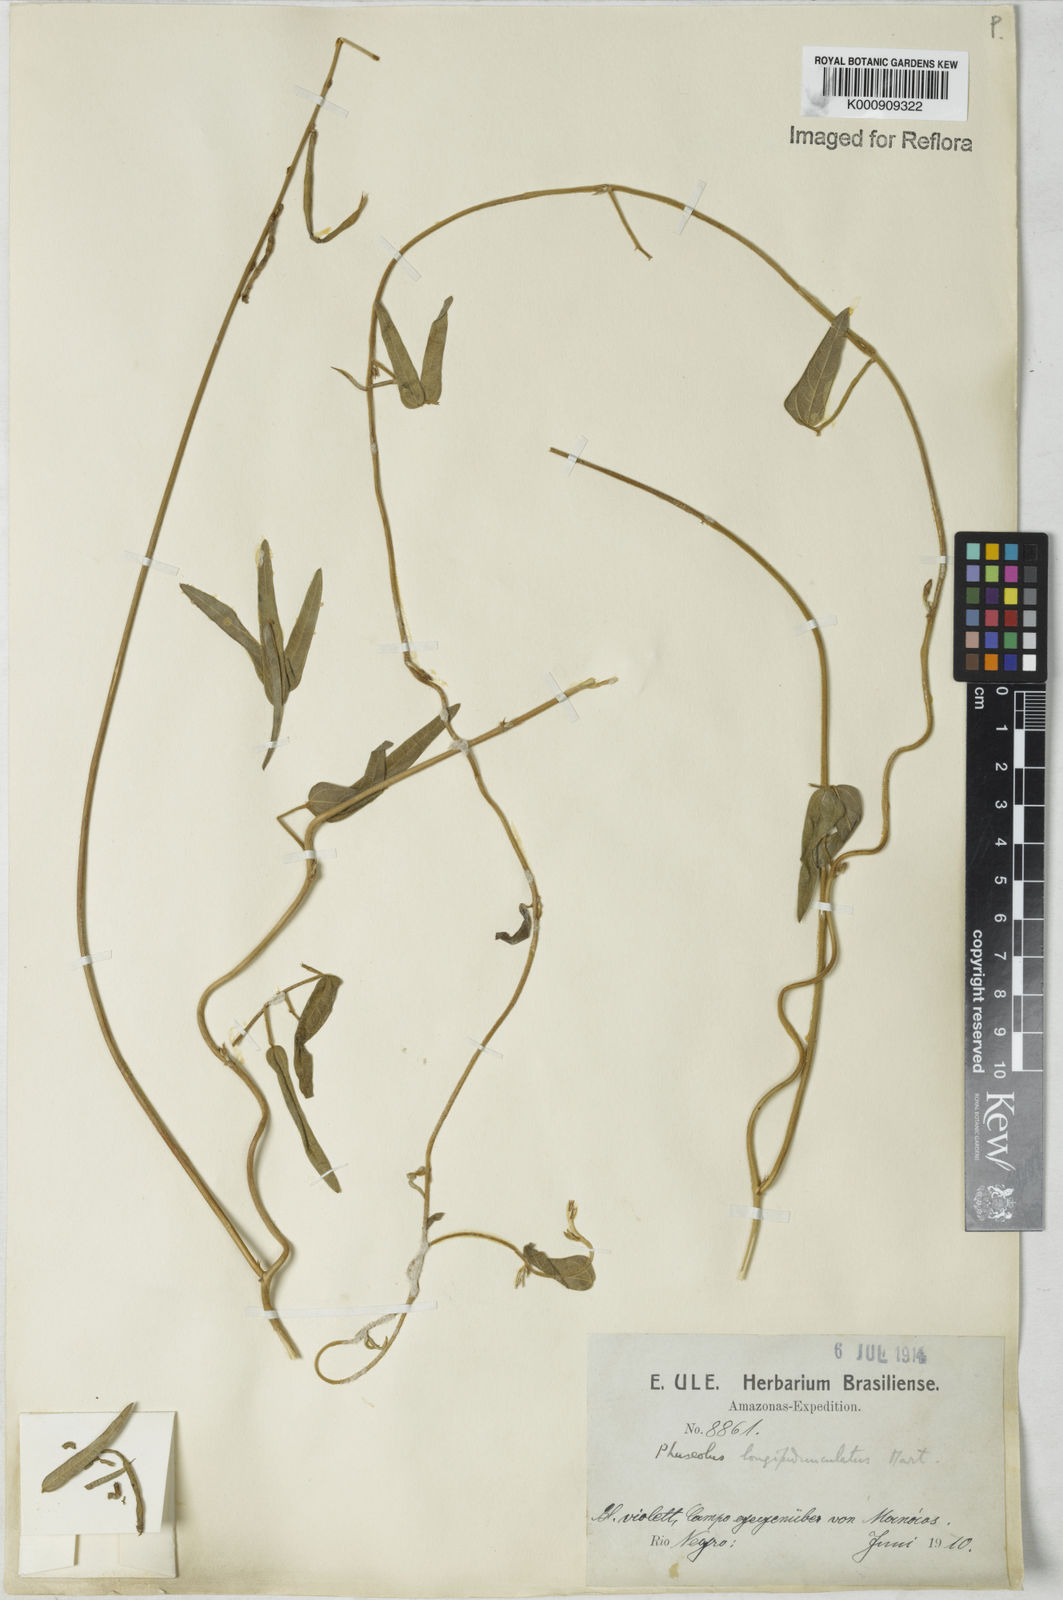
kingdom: Plantae
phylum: Tracheophyta
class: Magnoliopsida
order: Fabales
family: Fabaceae
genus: Macroptilium
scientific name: Macroptilium gracile
